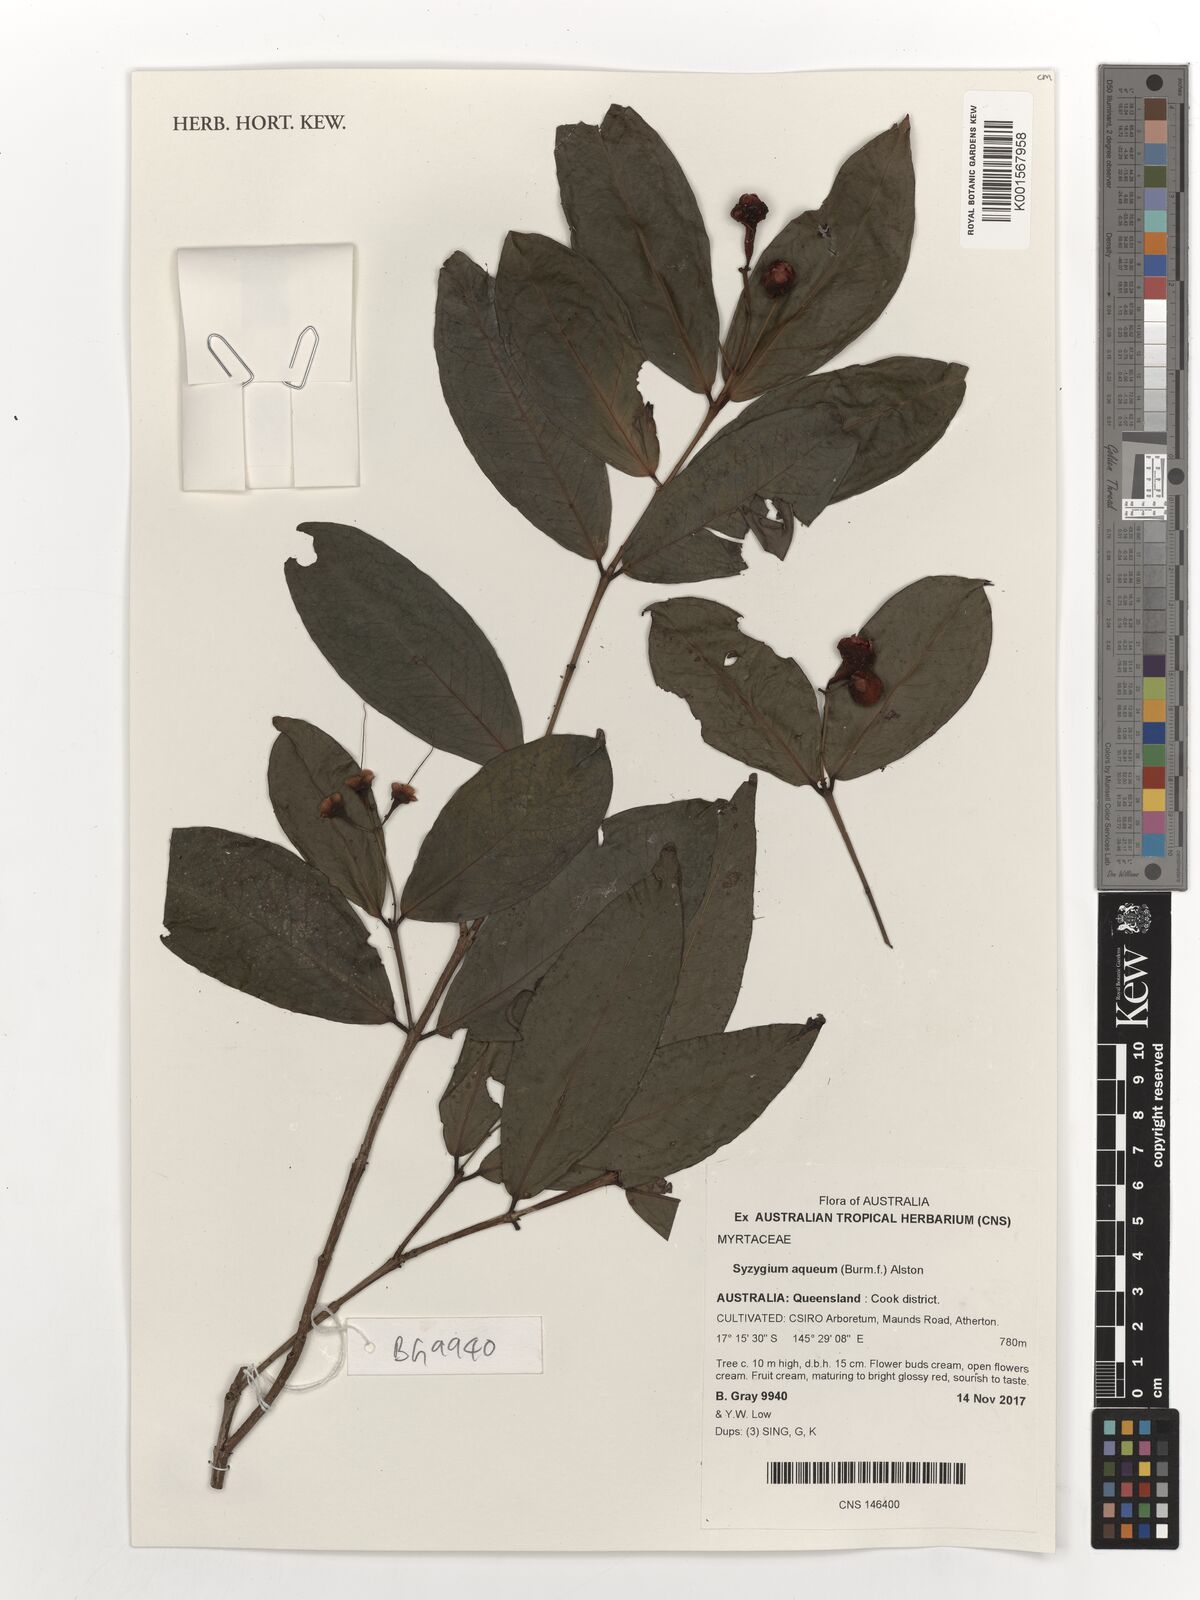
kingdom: Plantae
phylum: Tracheophyta
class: Magnoliopsida
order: Myrtales
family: Myrtaceae
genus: Syzygium
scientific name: Syzygium australe
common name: Australian brush-cherry
